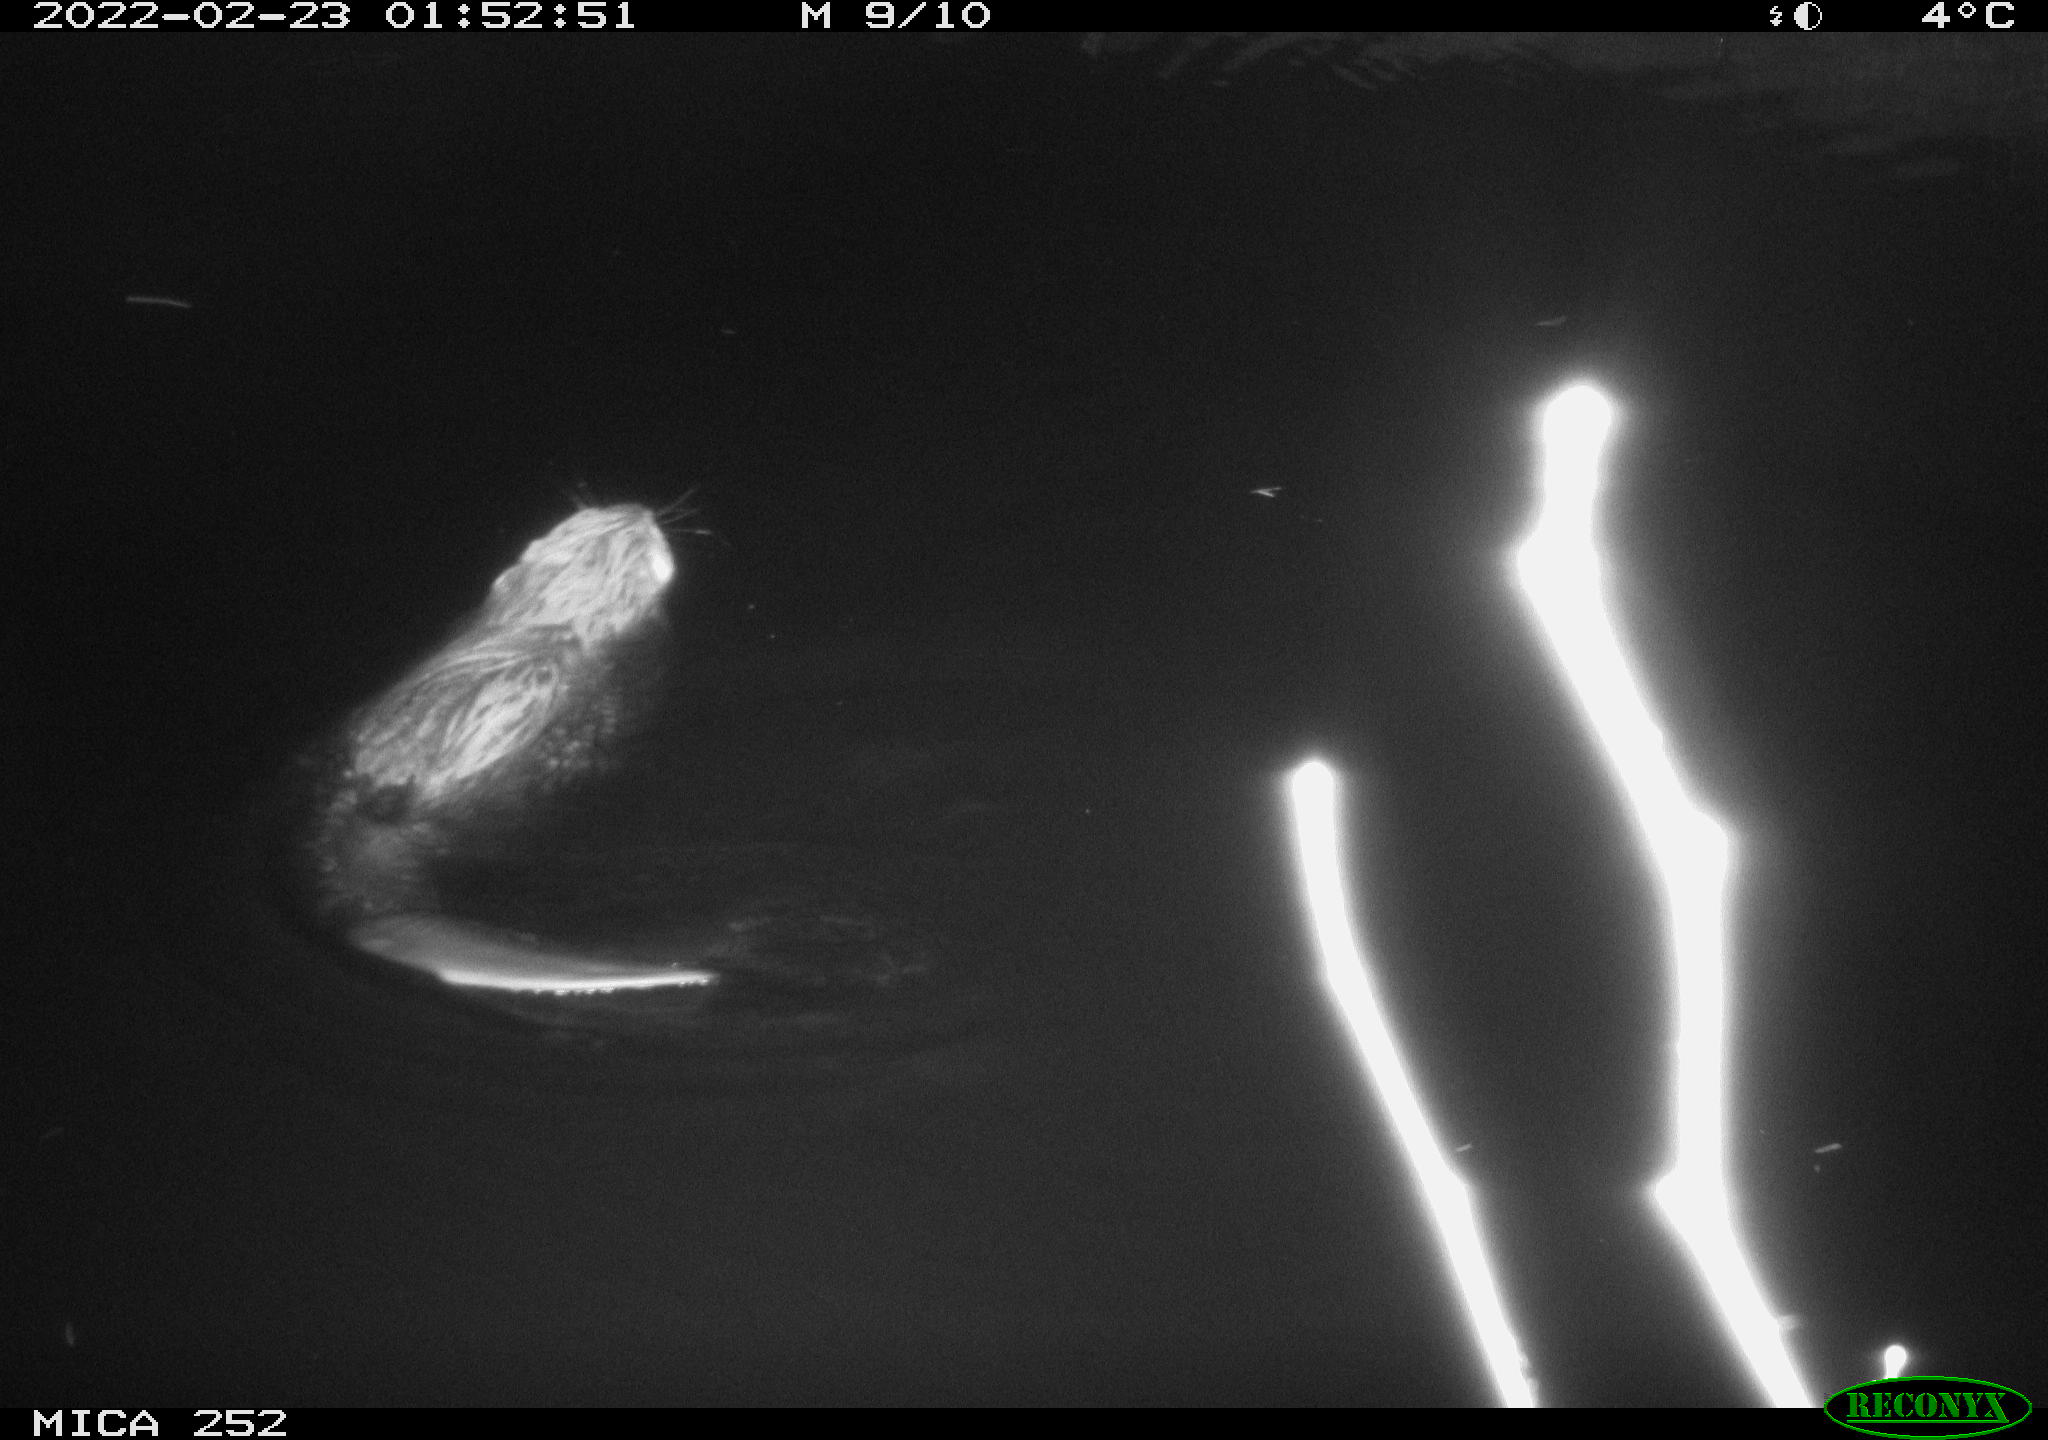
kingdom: Animalia
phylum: Chordata
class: Mammalia
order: Rodentia
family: Castoridae
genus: Castor
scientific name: Castor fiber
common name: Eurasian beaver
